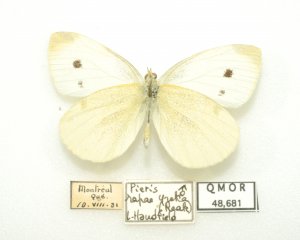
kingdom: Animalia
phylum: Arthropoda
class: Insecta
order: Lepidoptera
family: Pieridae
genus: Pieris
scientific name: Pieris rapae
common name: Cabbage White
